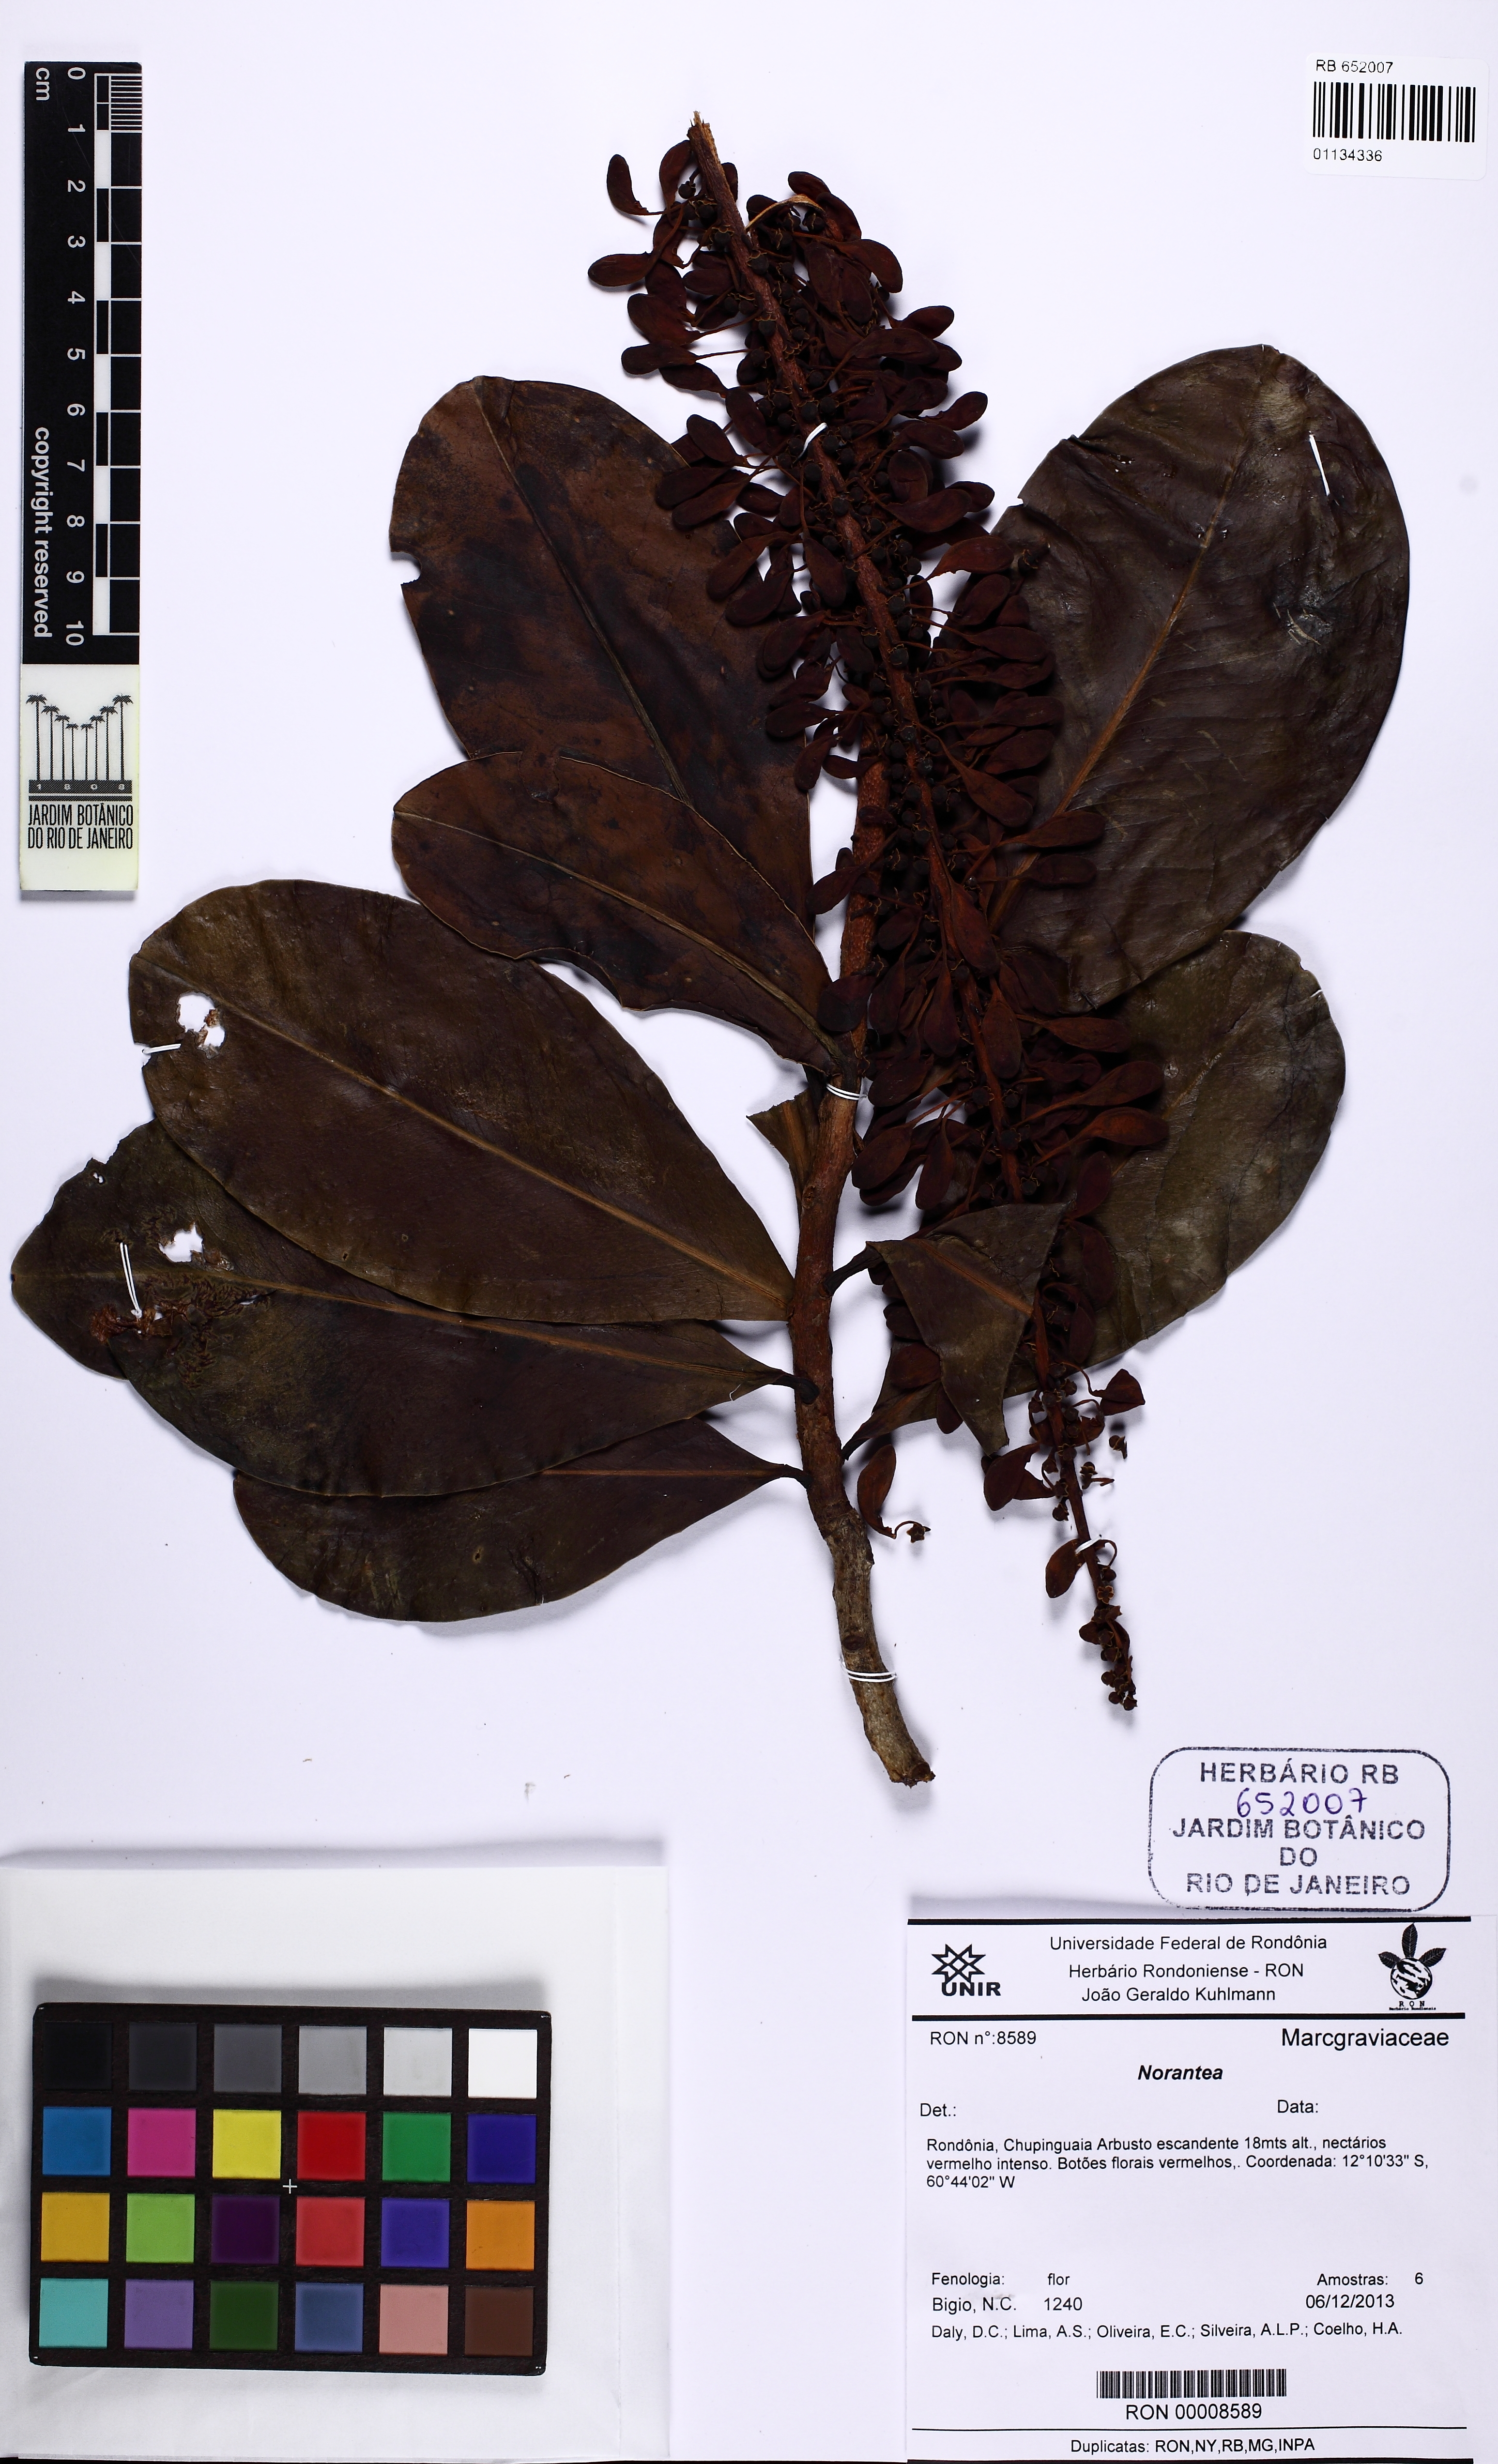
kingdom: Plantae
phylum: Tracheophyta
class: Magnoliopsida
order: Ericales
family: Marcgraviaceae
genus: Norantea
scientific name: Norantea
